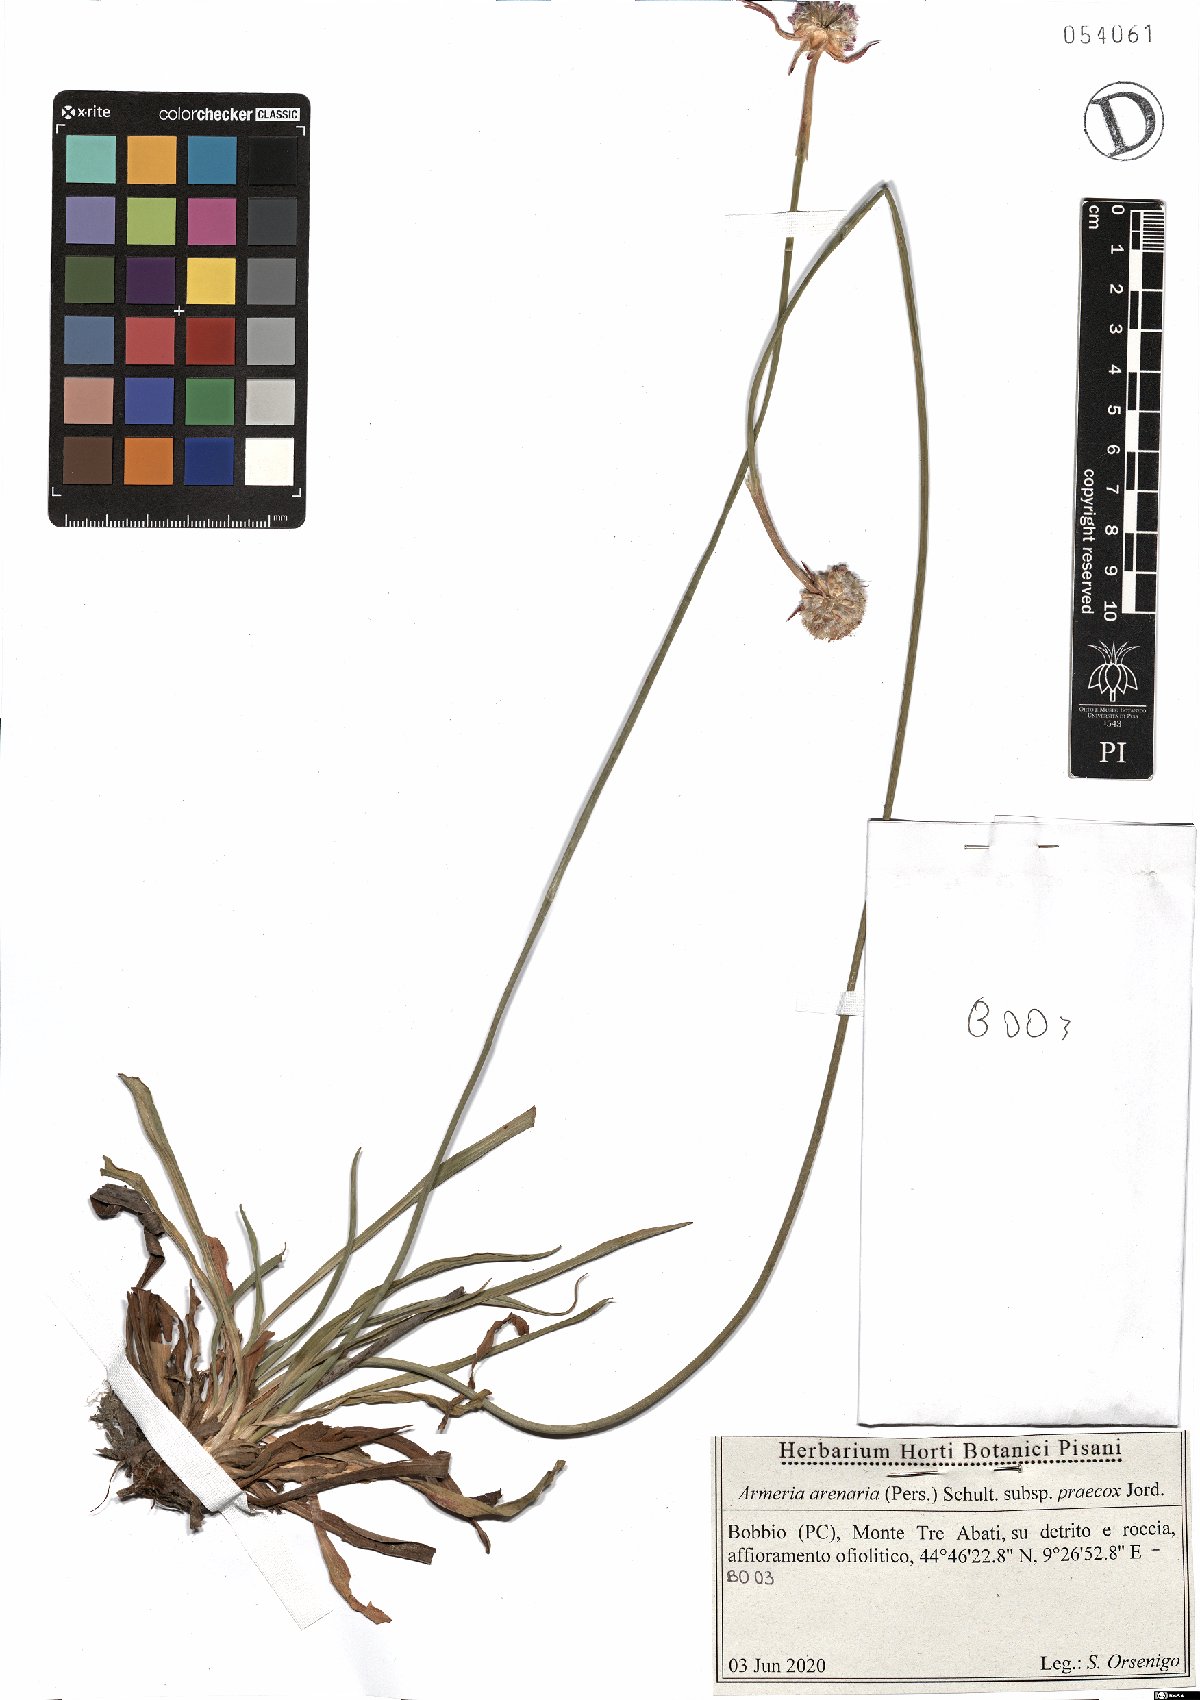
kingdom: Plantae
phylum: Tracheophyta
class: Magnoliopsida
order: Caryophyllales
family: Plumbaginaceae
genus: Armeria
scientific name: Armeria arenaria
